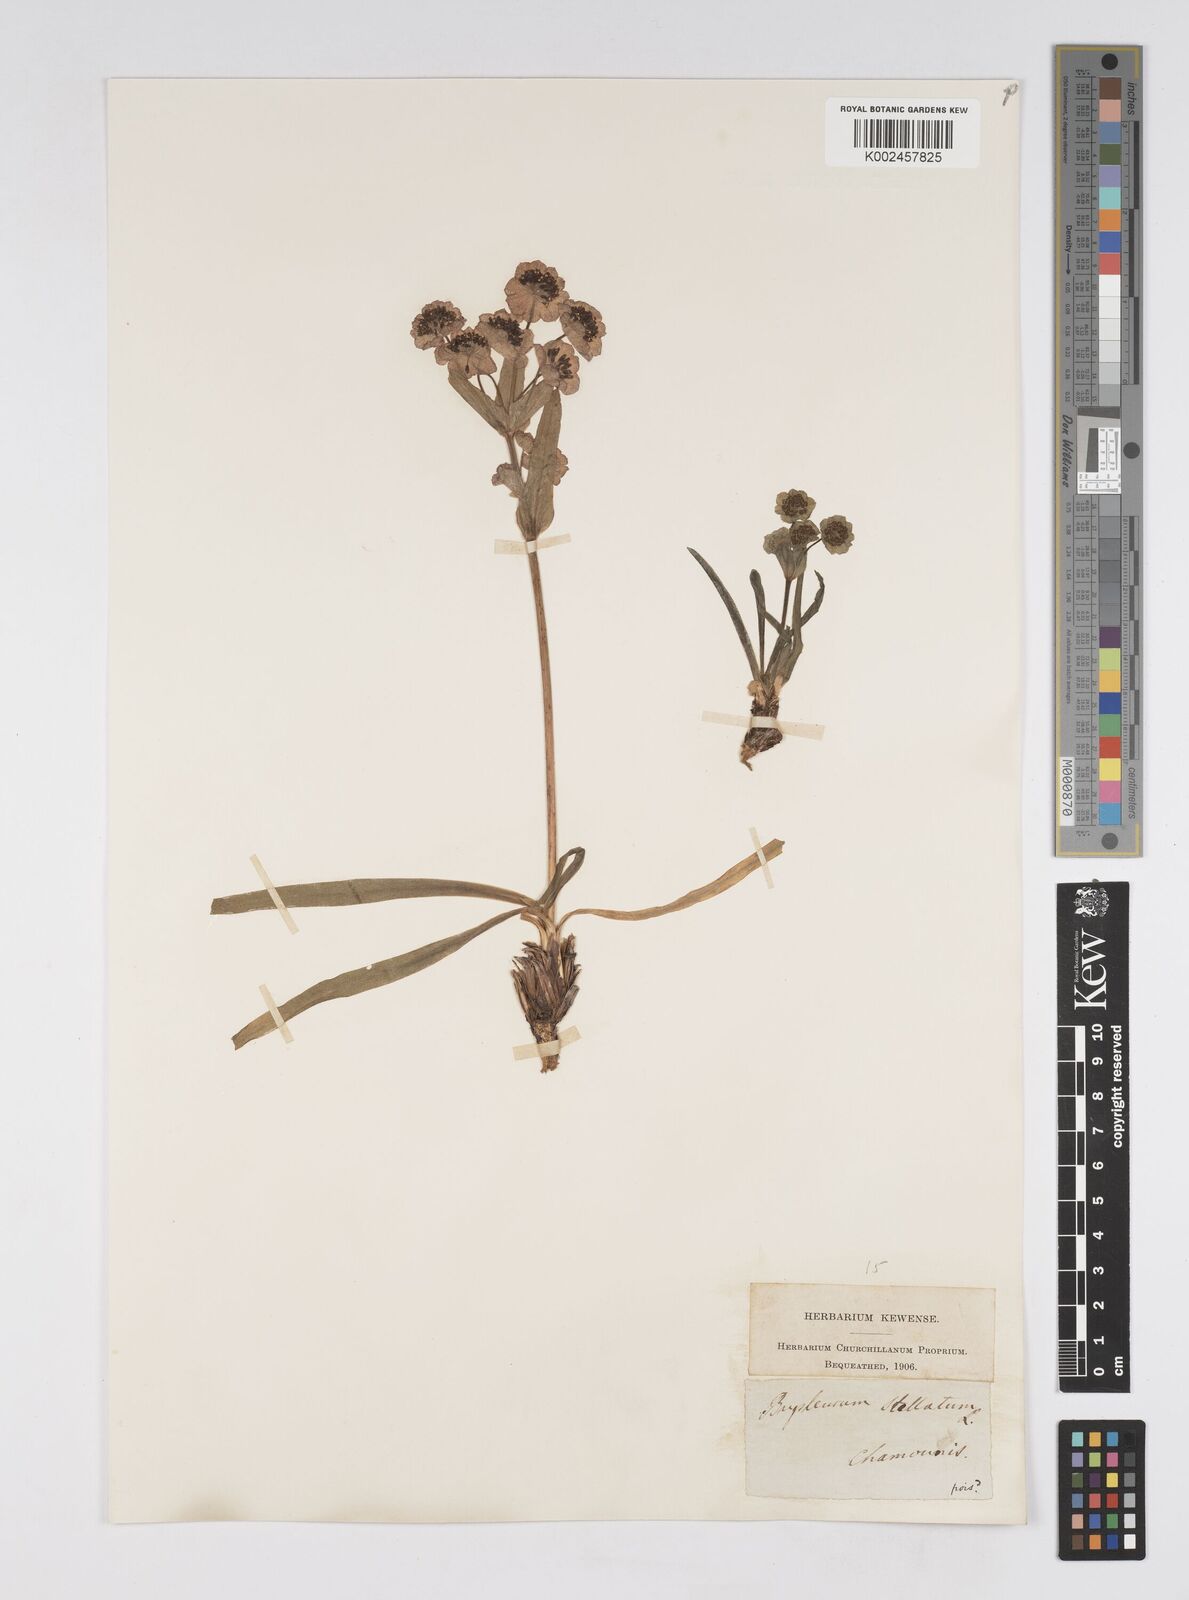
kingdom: Plantae
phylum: Tracheophyta
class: Magnoliopsida
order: Apiales
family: Apiaceae
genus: Bupleurum
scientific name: Bupleurum stellatum
